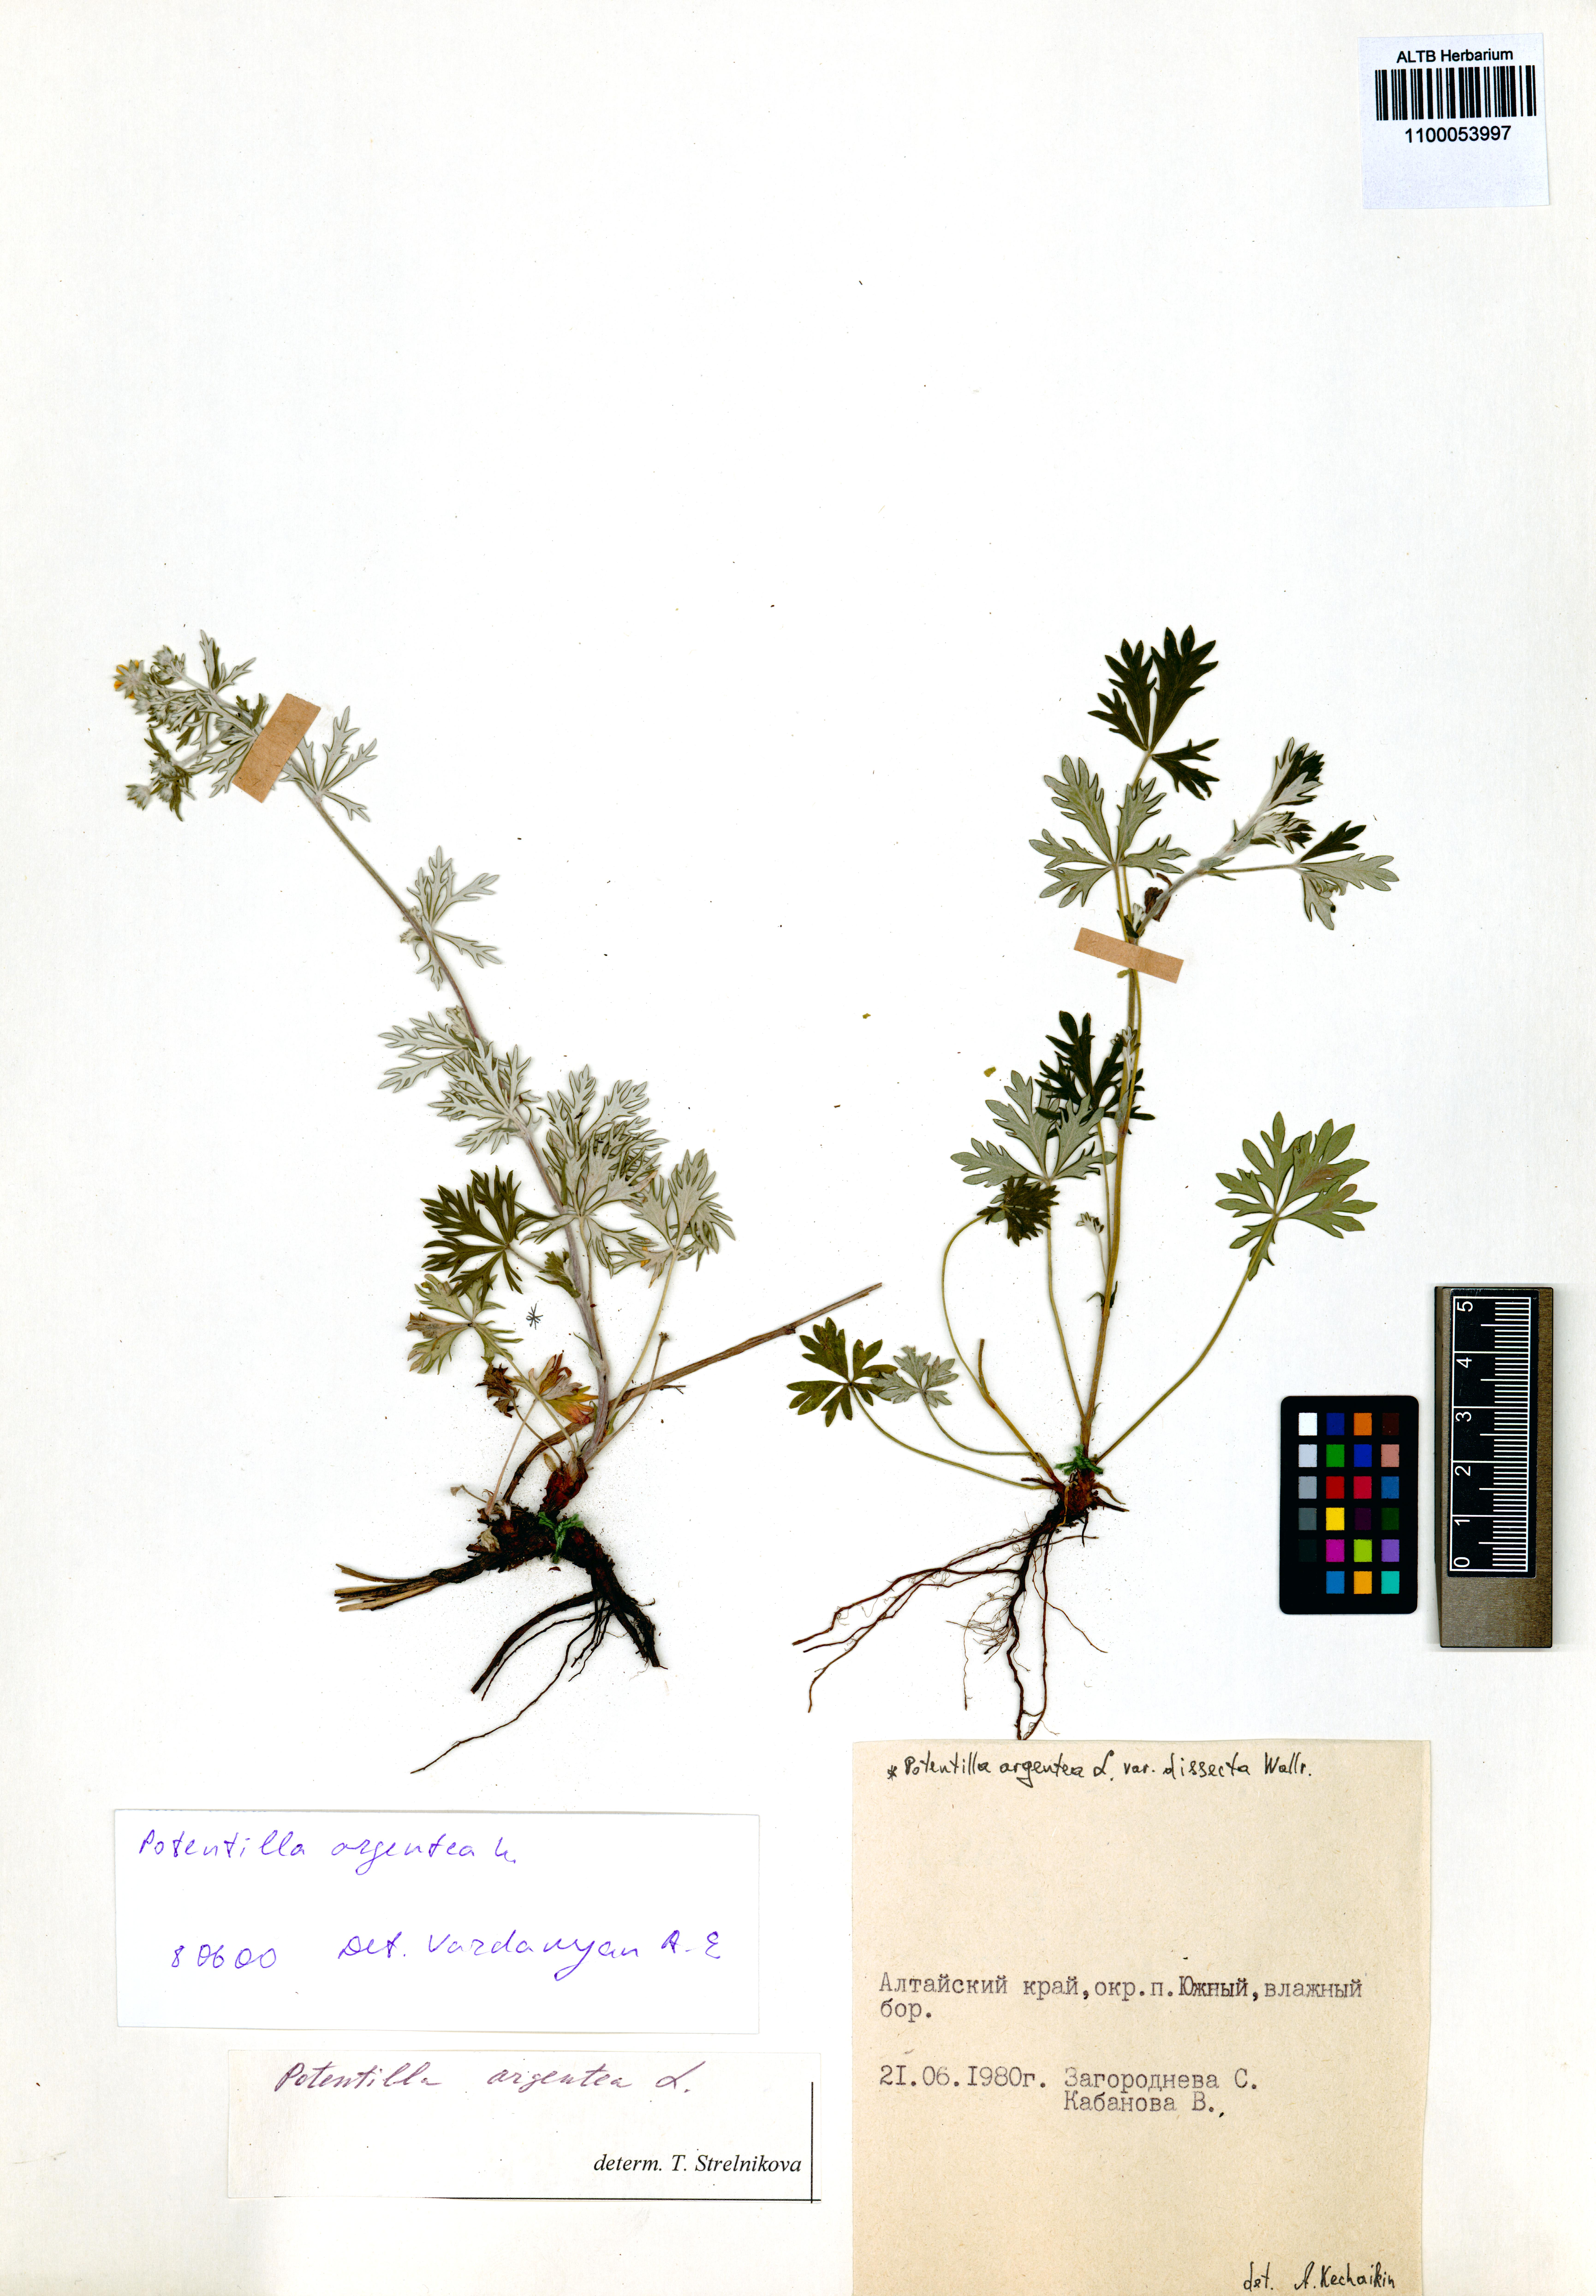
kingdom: Plantae
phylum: Tracheophyta
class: Magnoliopsida
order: Rosales
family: Rosaceae
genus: Potentilla
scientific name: Potentilla argentea
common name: Hoary cinquefoil
